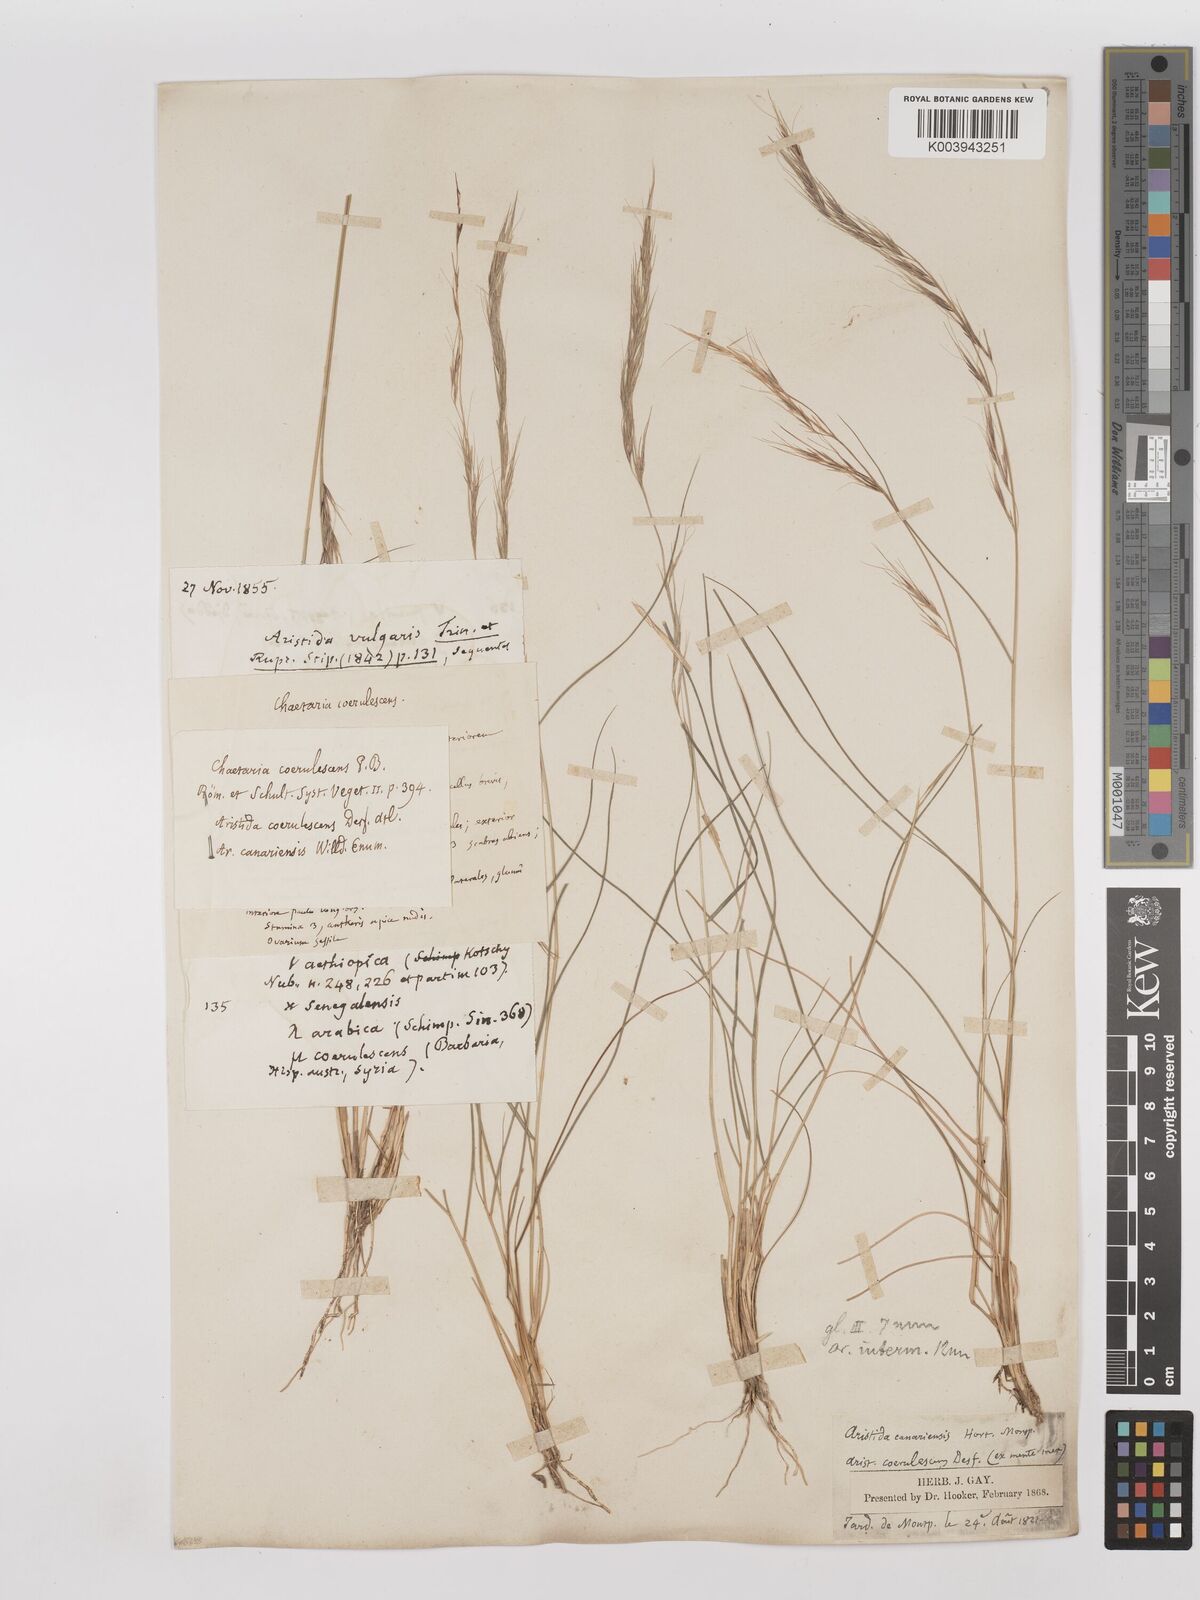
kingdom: Plantae
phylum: Tracheophyta
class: Liliopsida
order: Poales
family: Poaceae
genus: Aristida
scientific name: Aristida adscensionis
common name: Sixweeks threeawn
